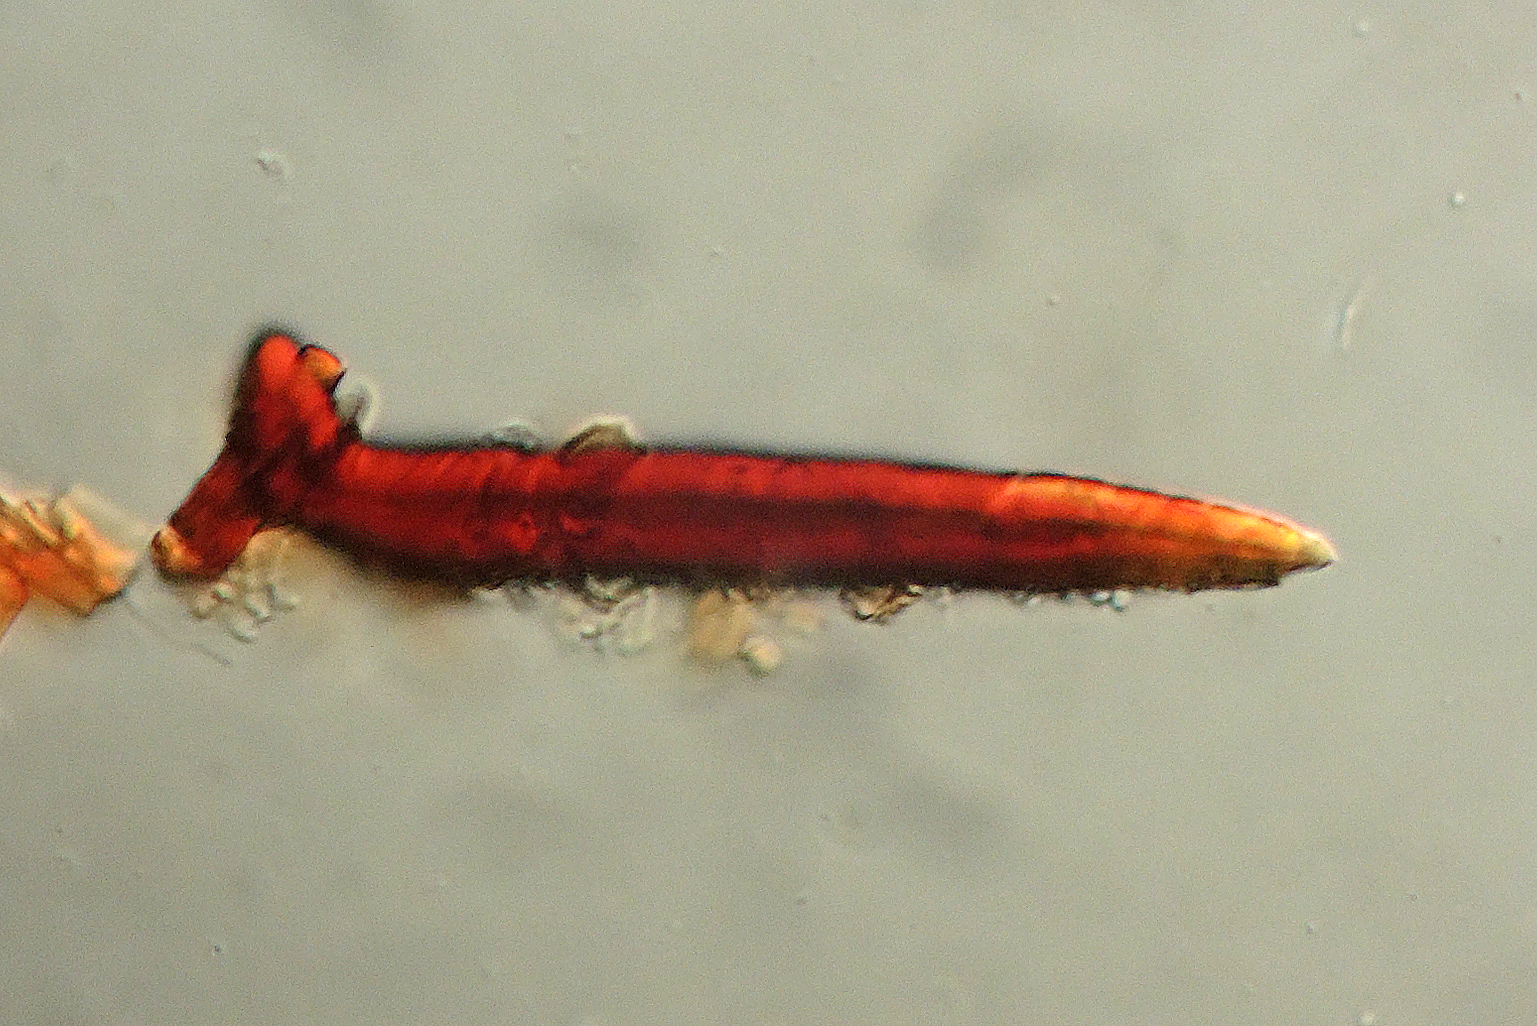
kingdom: Fungi
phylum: Basidiomycota
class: Agaricomycetes
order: Hymenochaetales
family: Hymenochaetaceae
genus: Hydnoporia
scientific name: Hydnoporia corrugata
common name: sprække-ruslædersvamp
